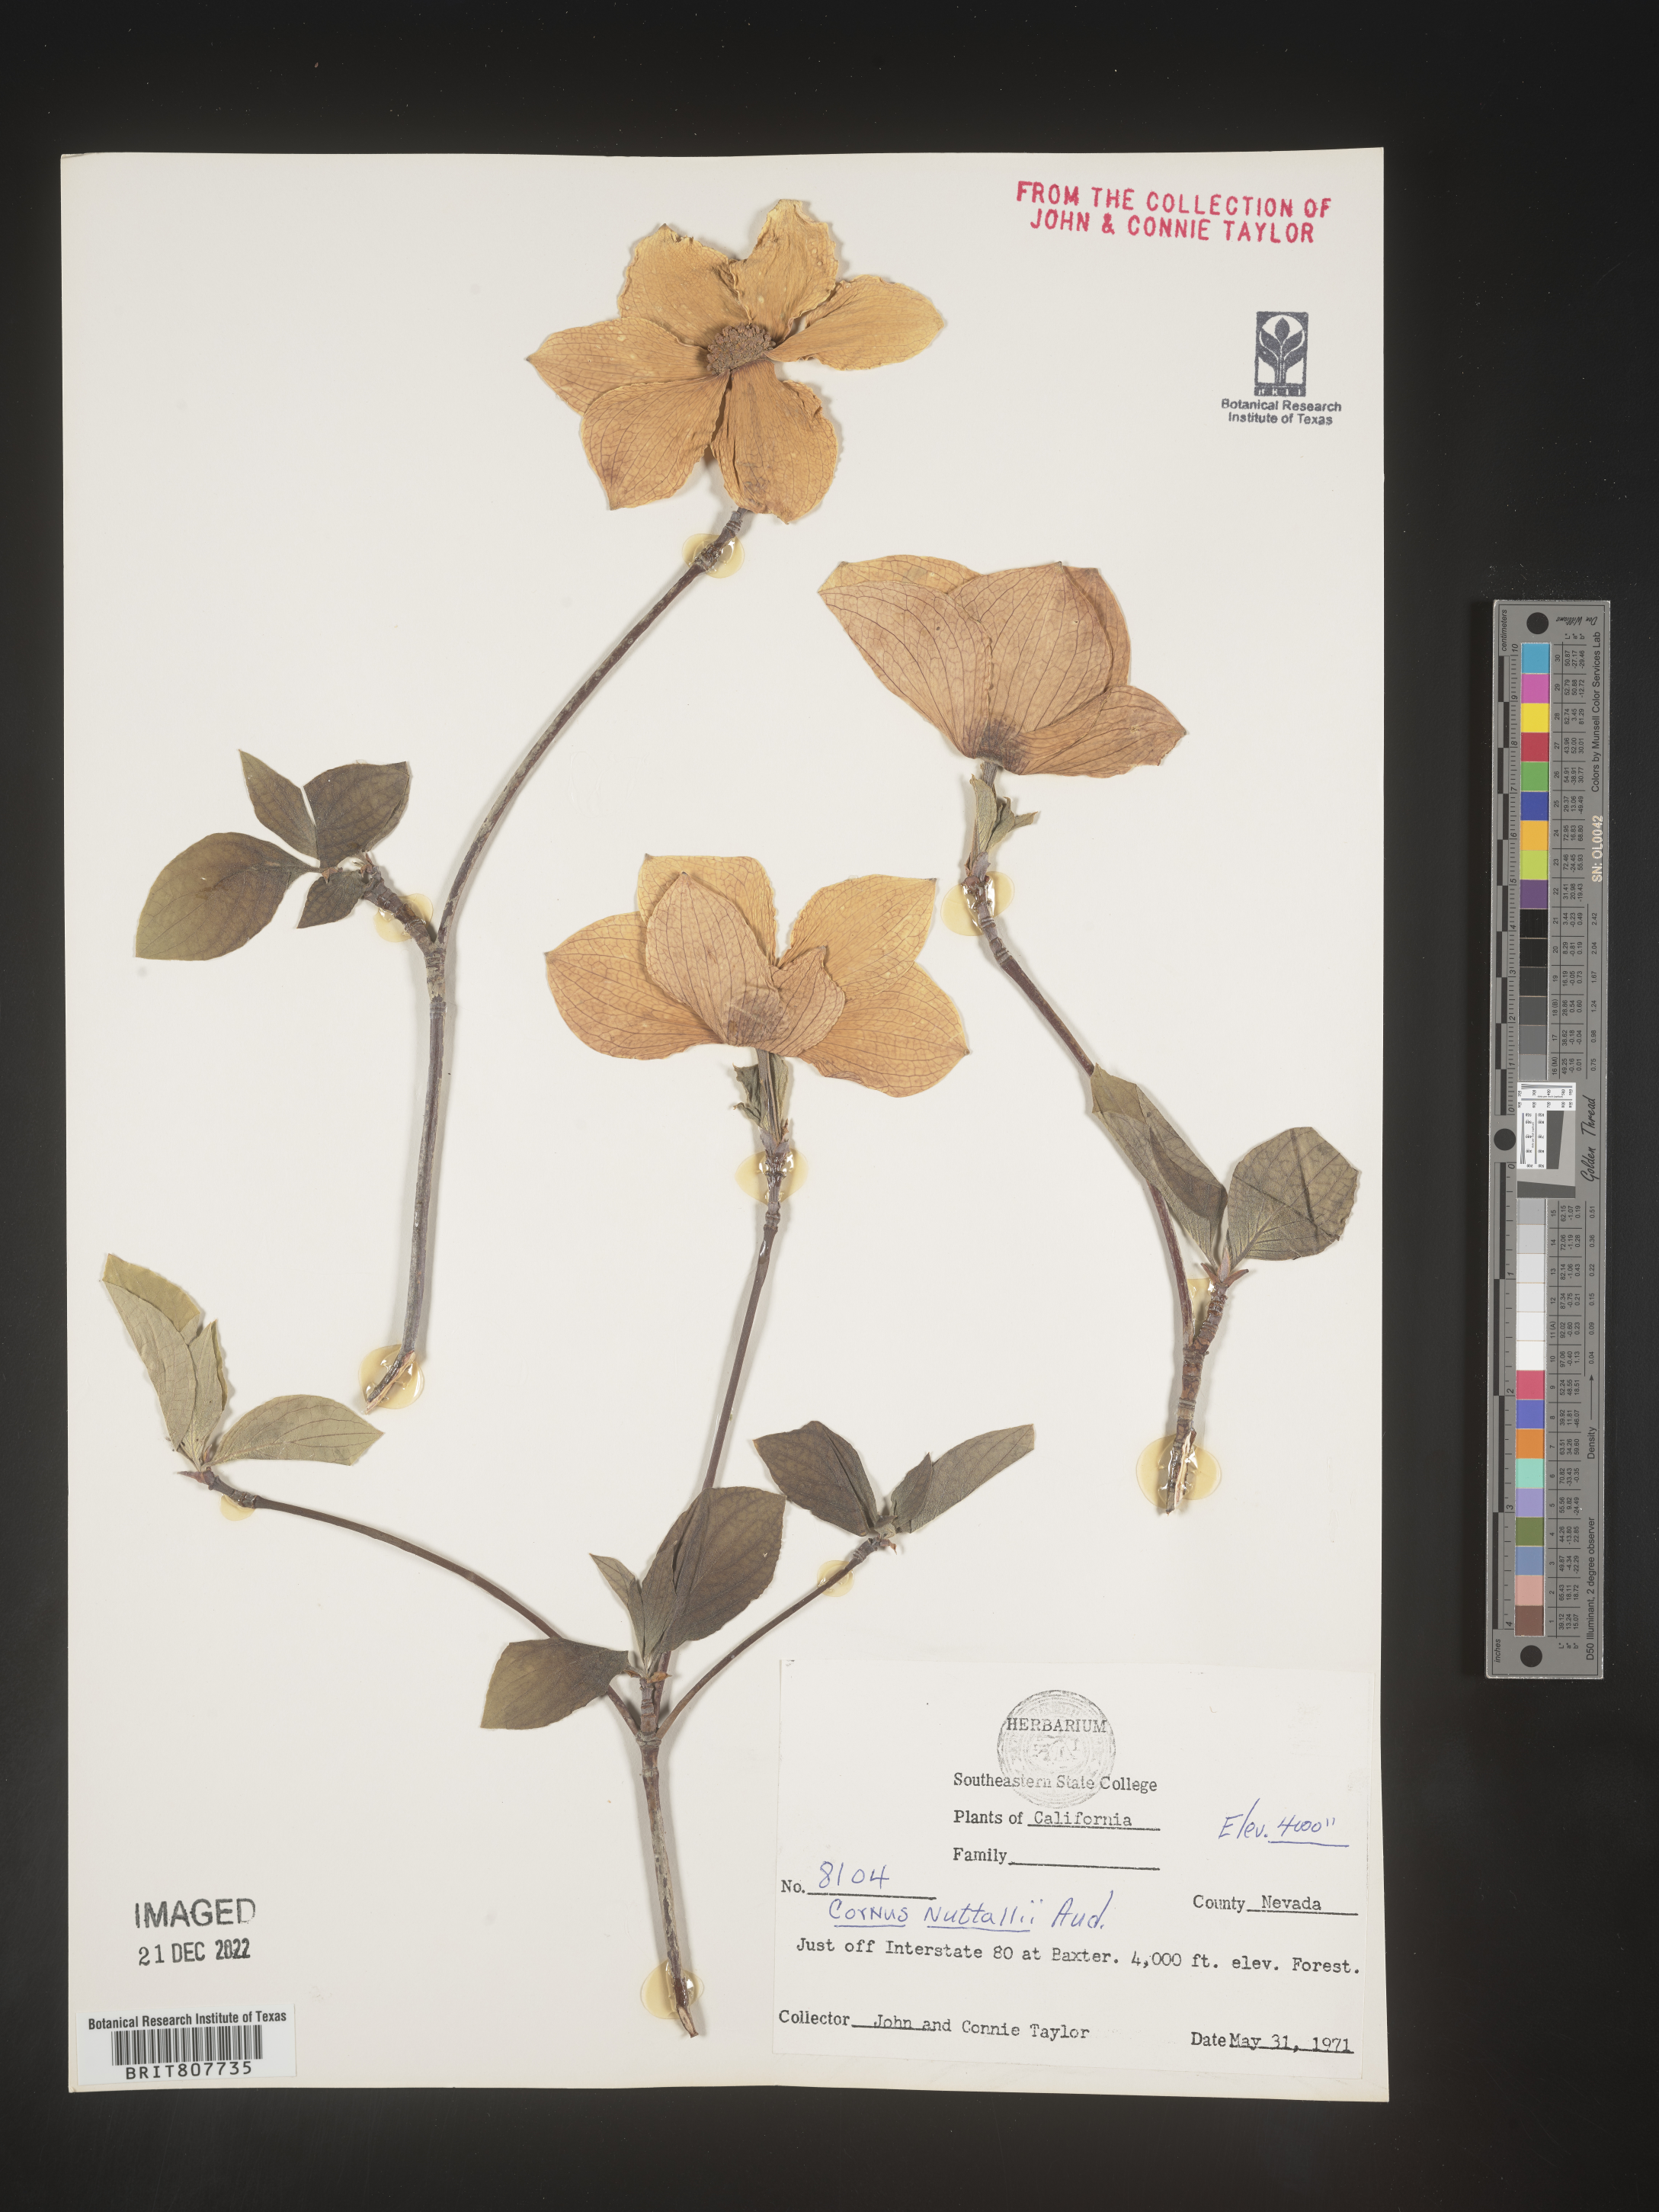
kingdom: Plantae
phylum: Tracheophyta
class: Magnoliopsida
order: Cornales
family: Cornaceae
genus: Cornus
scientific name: Cornus nuttallii
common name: Pacific dogwood
